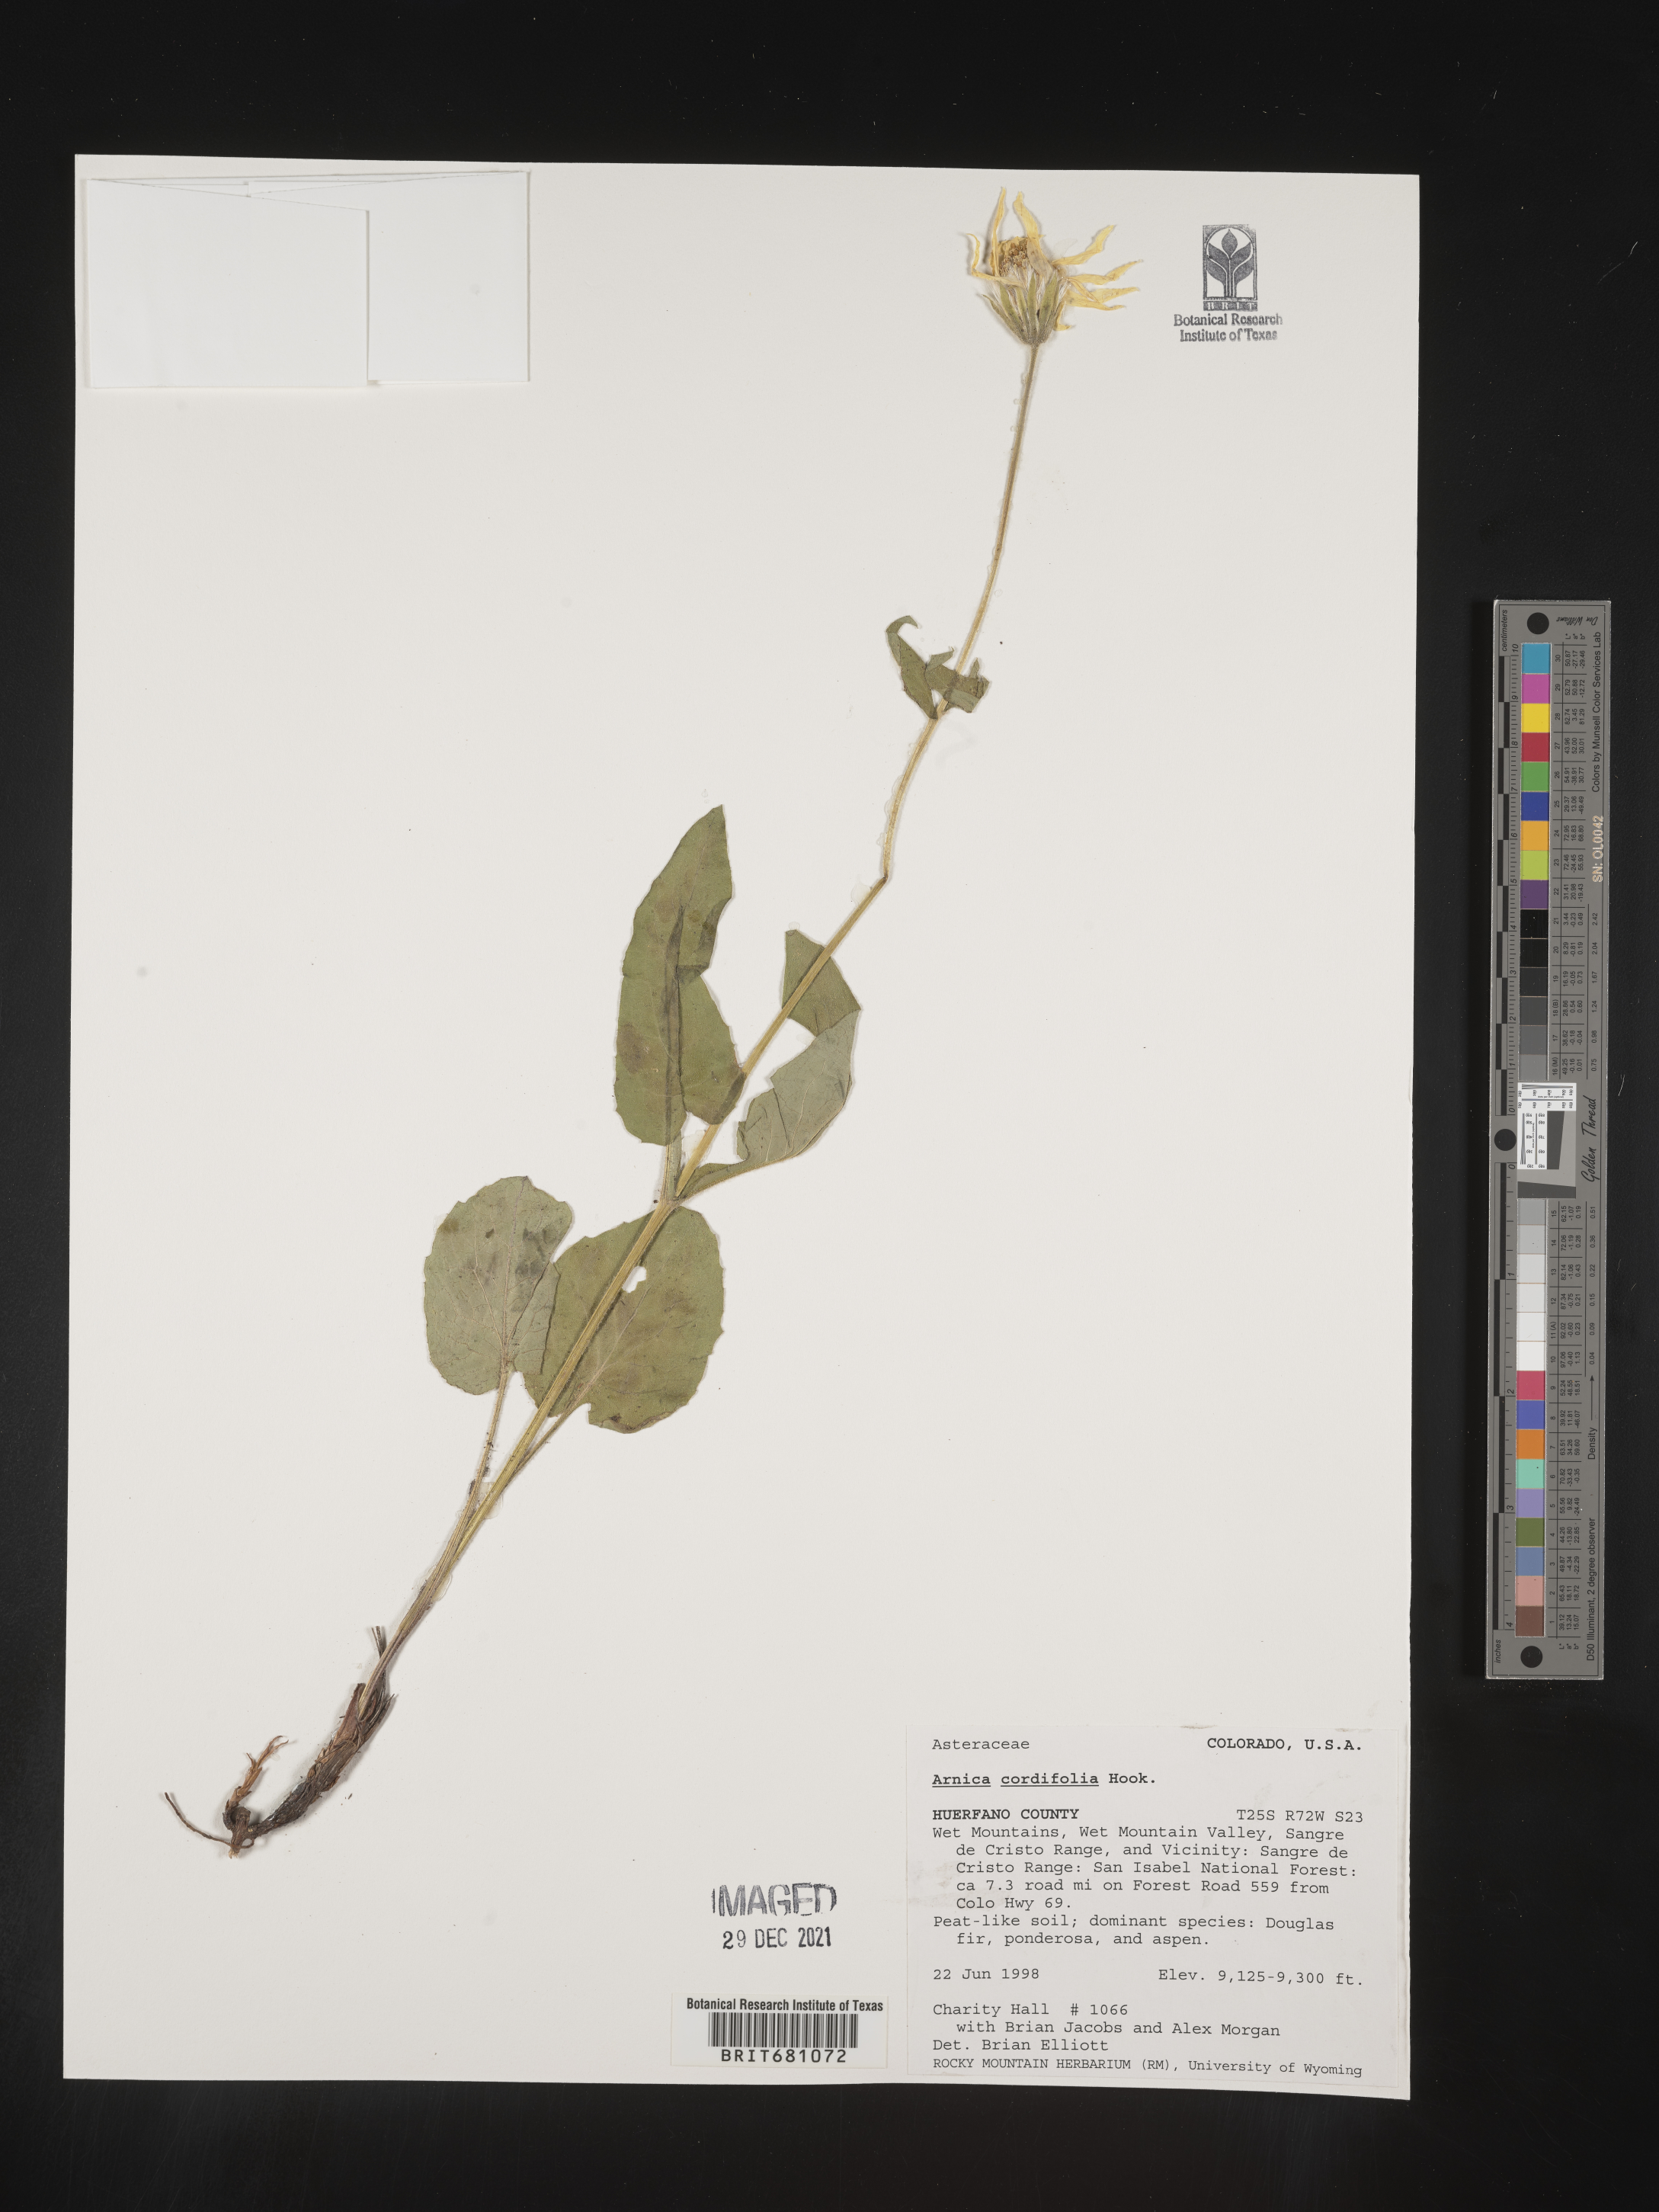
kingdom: Plantae
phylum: Tracheophyta
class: Magnoliopsida
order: Asterales
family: Asteraceae
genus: Arnica
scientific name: Arnica cordifolia
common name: Heart-leaf arnica
